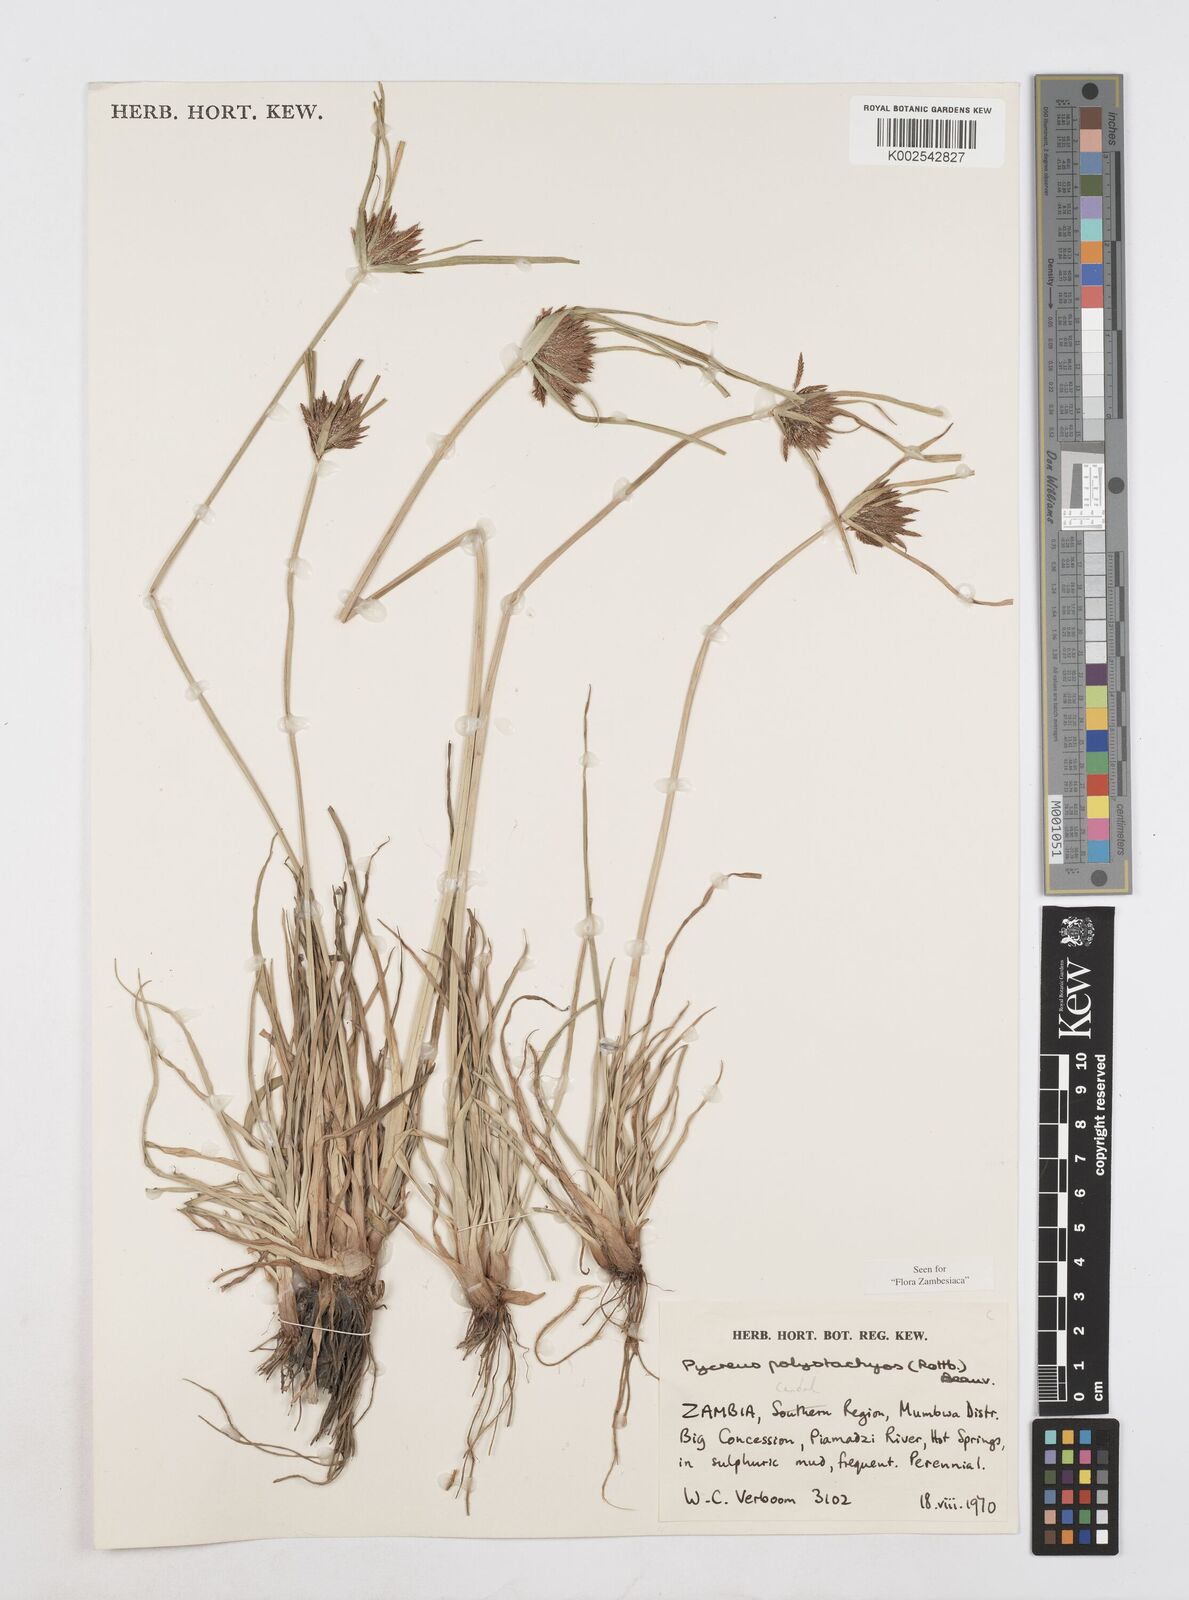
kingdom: Plantae
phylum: Tracheophyta
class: Liliopsida
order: Poales
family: Cyperaceae
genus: Cyperus
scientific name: Cyperus polystachyos
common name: Bunchy flat sedge
